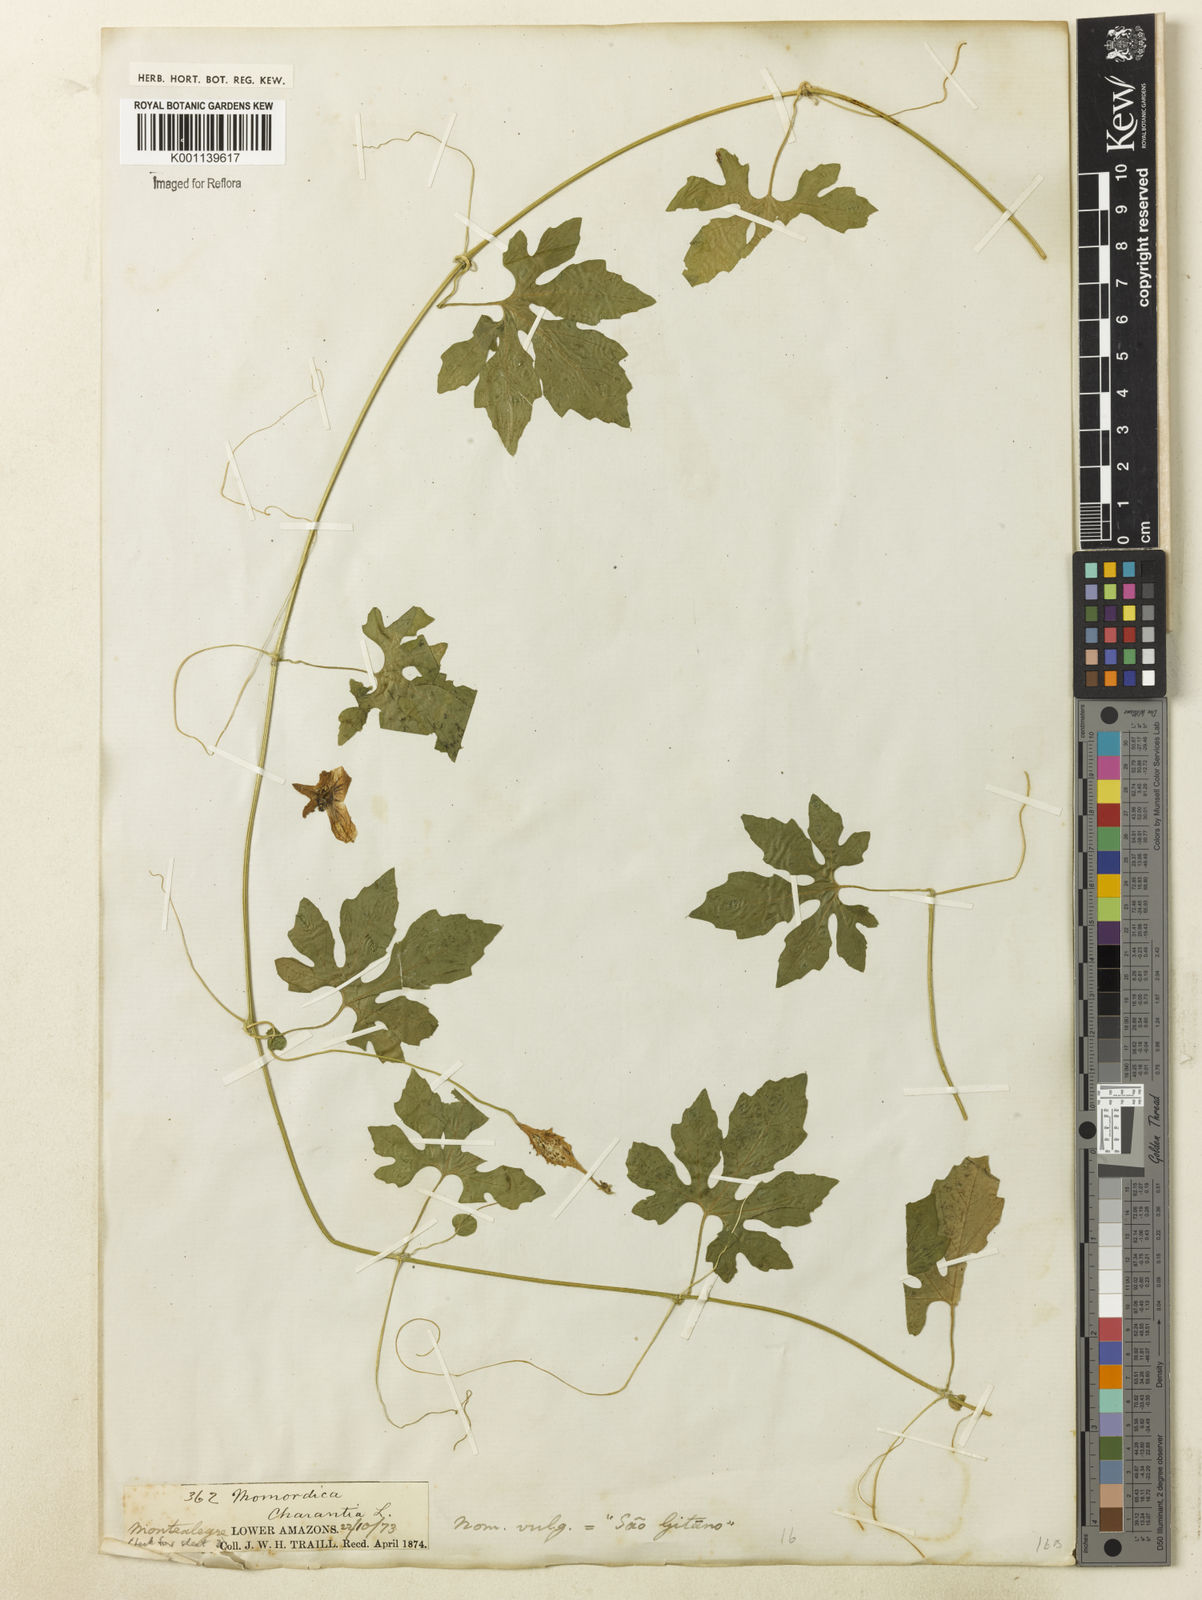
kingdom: Plantae
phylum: Tracheophyta
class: Magnoliopsida
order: Cucurbitales
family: Cucurbitaceae
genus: Momordica
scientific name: Momordica charantia
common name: Balsampear
